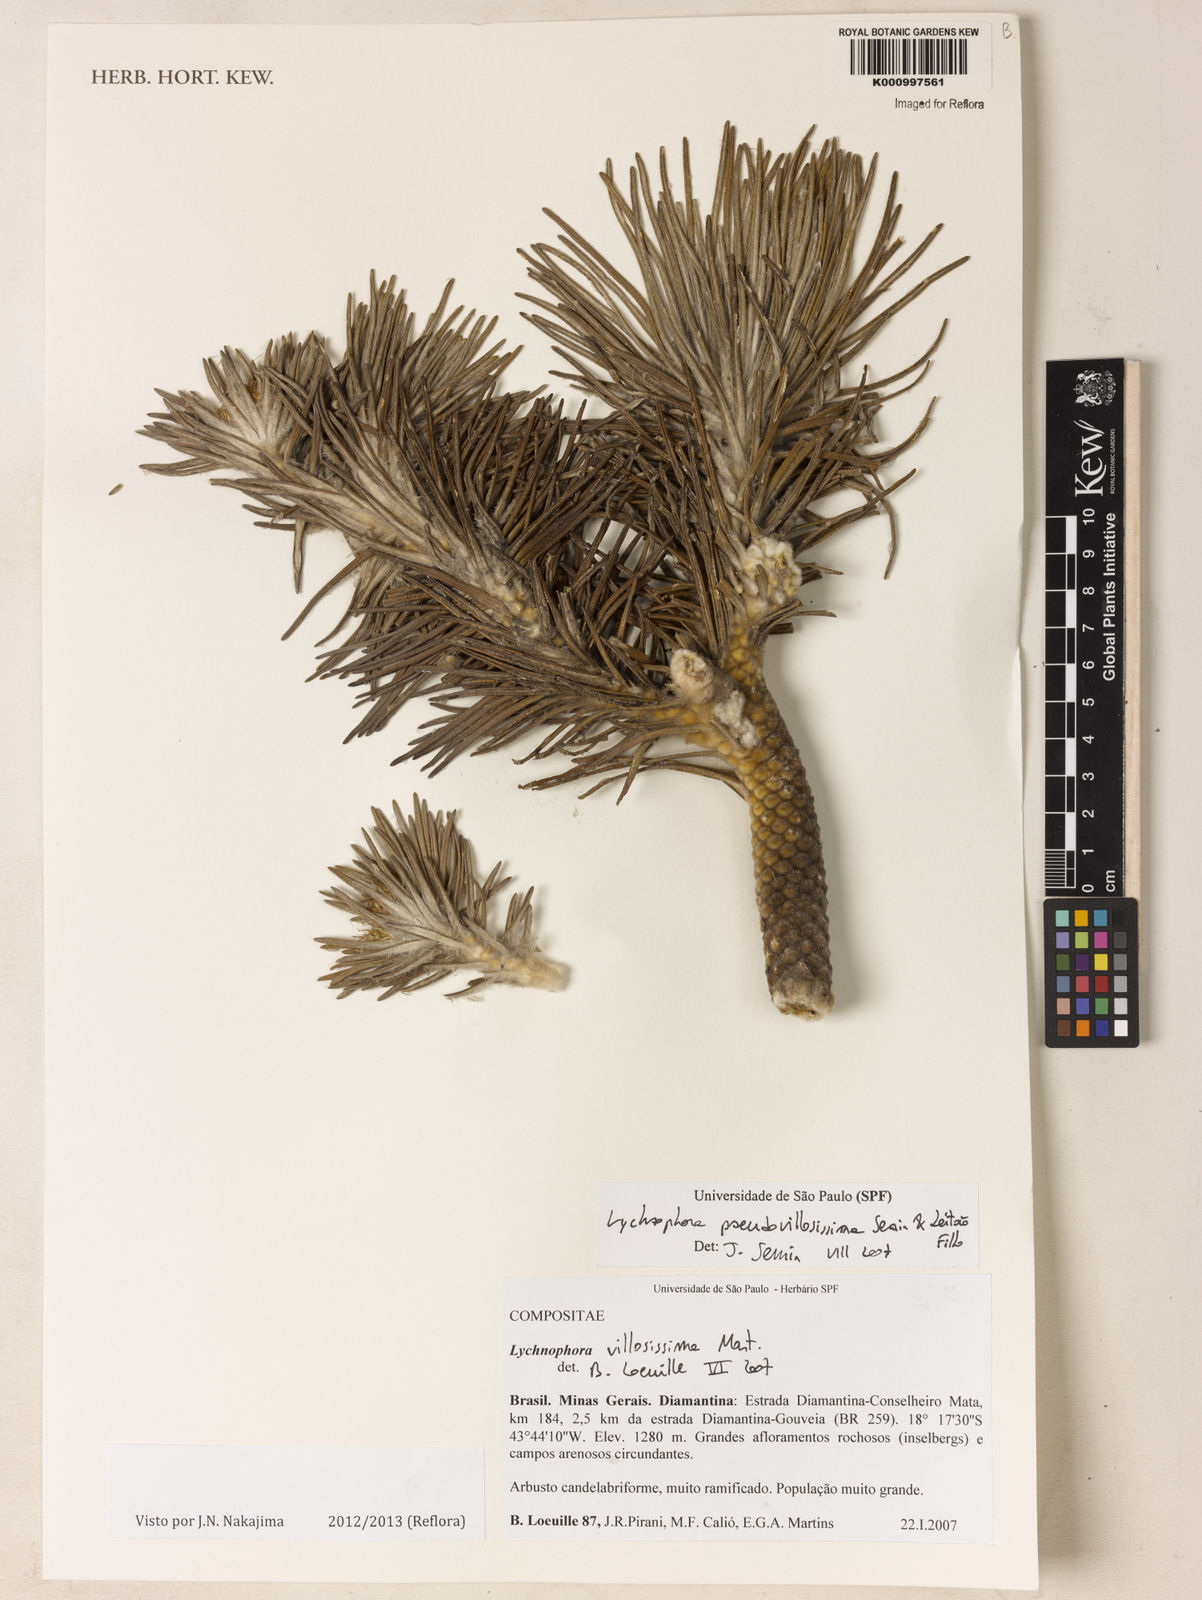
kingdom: Plantae
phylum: Tracheophyta
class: Magnoliopsida
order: Asterales
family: Asteraceae
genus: Lychnophora
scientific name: Lychnophora
